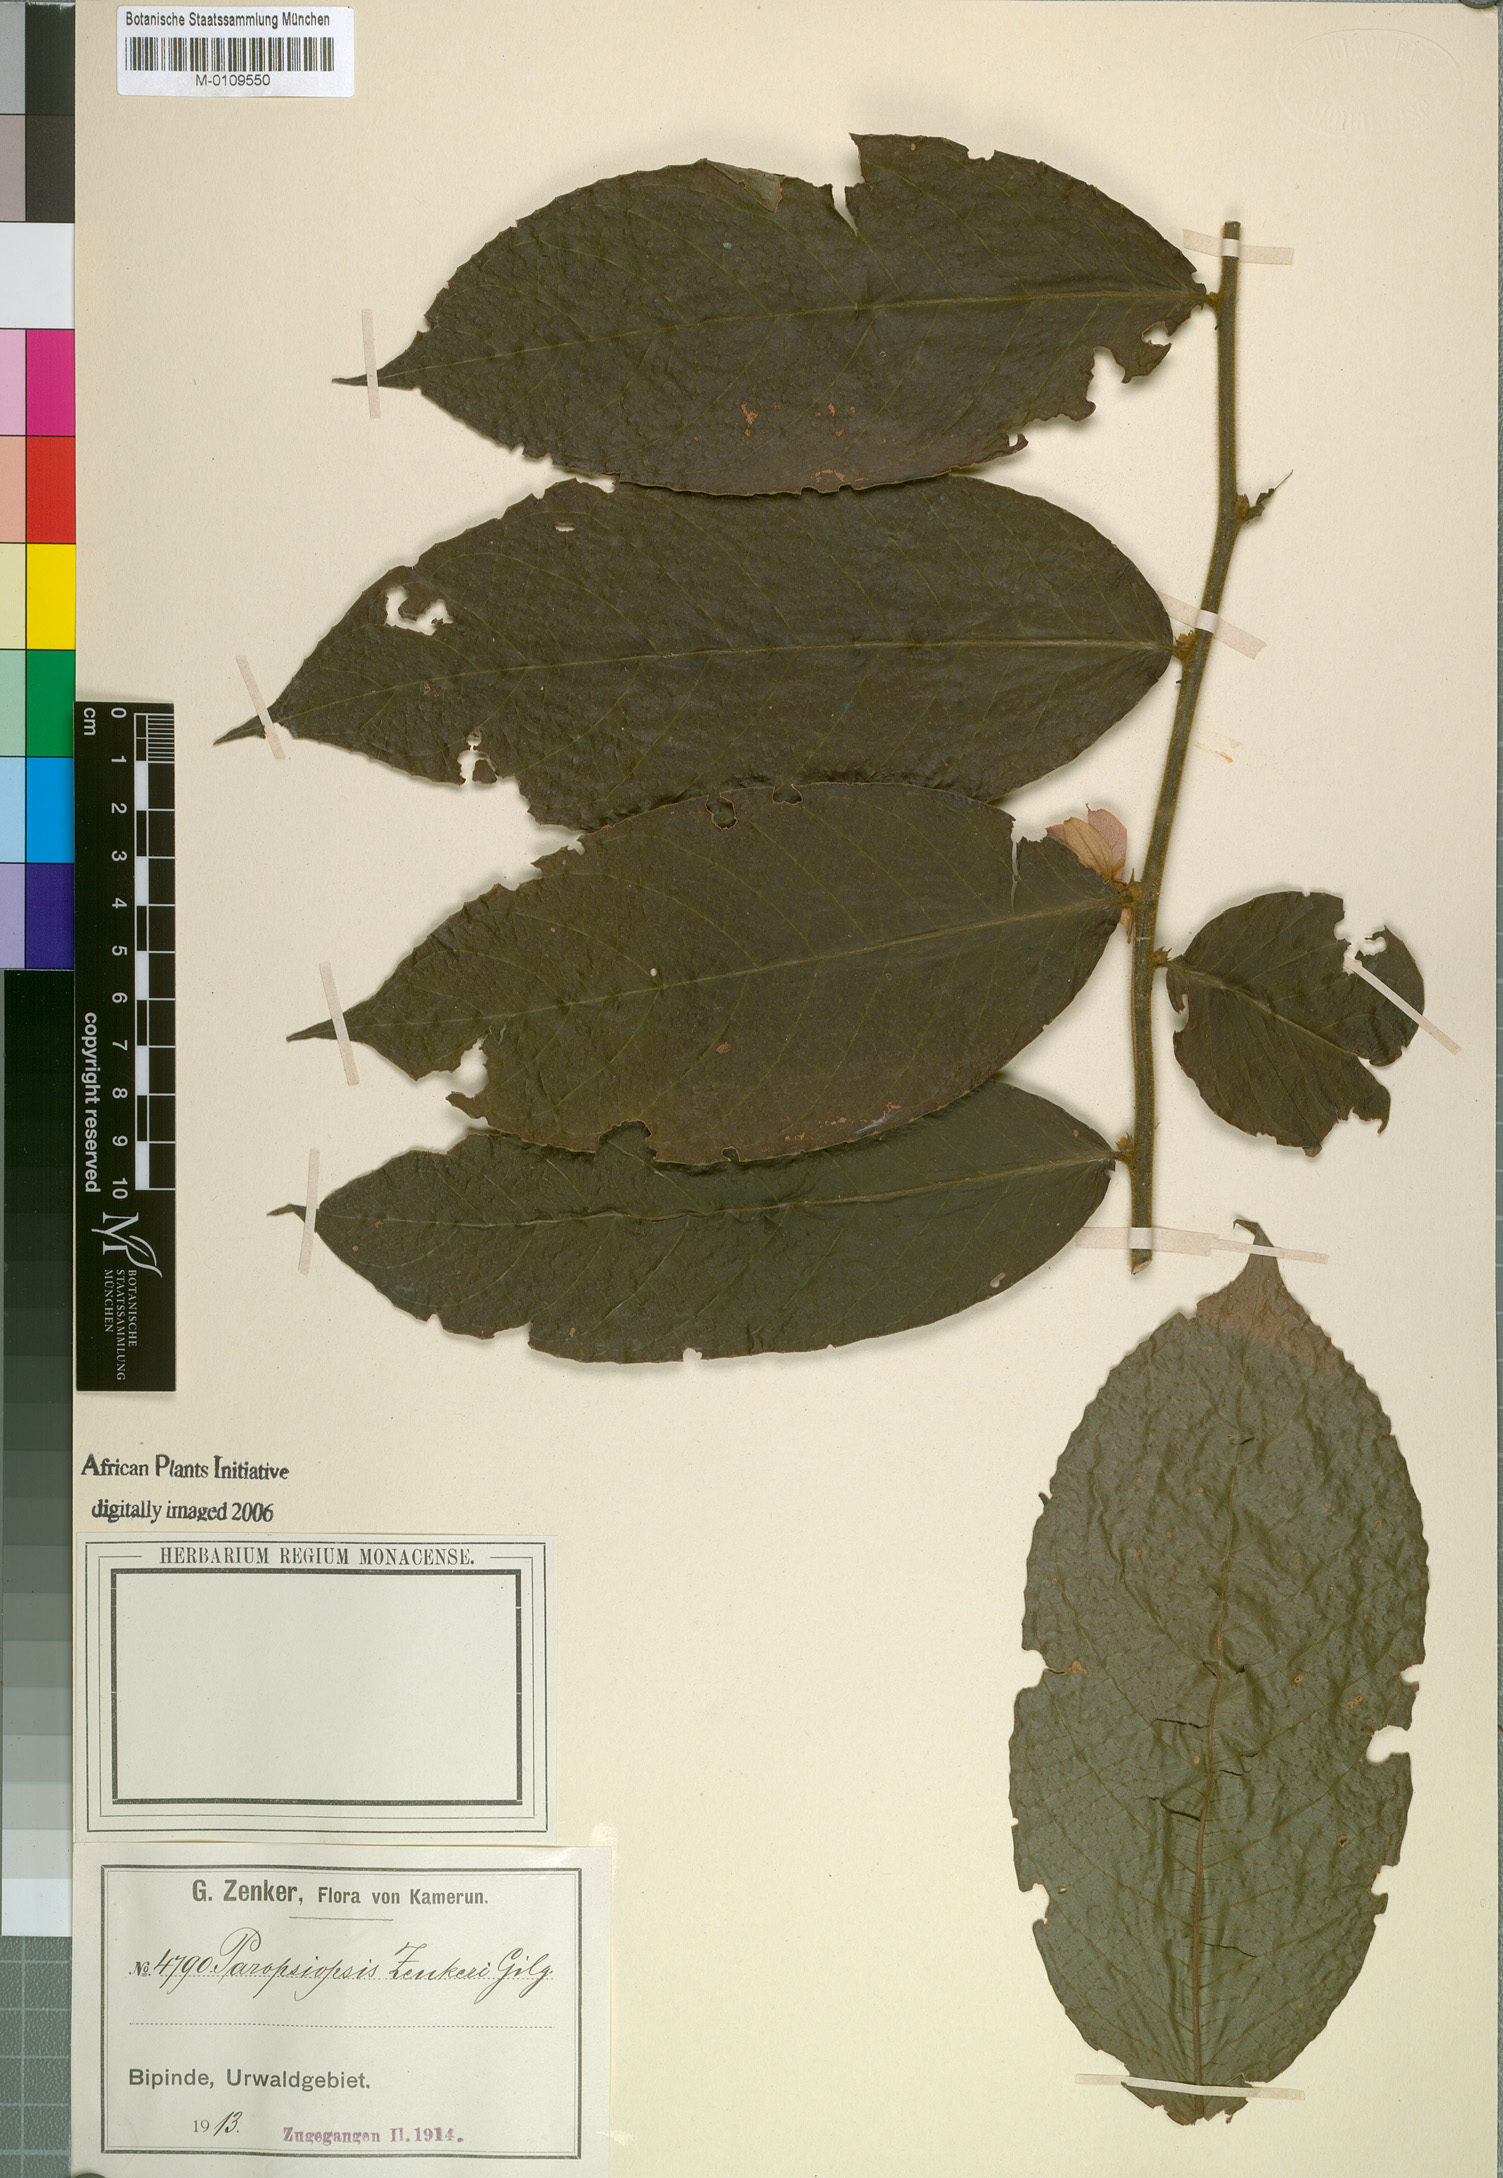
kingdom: Plantae
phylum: Tracheophyta
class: Magnoliopsida
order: Malpighiales
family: Passifloraceae
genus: Paropsiopsis
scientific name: Paropsiopsis decandra
